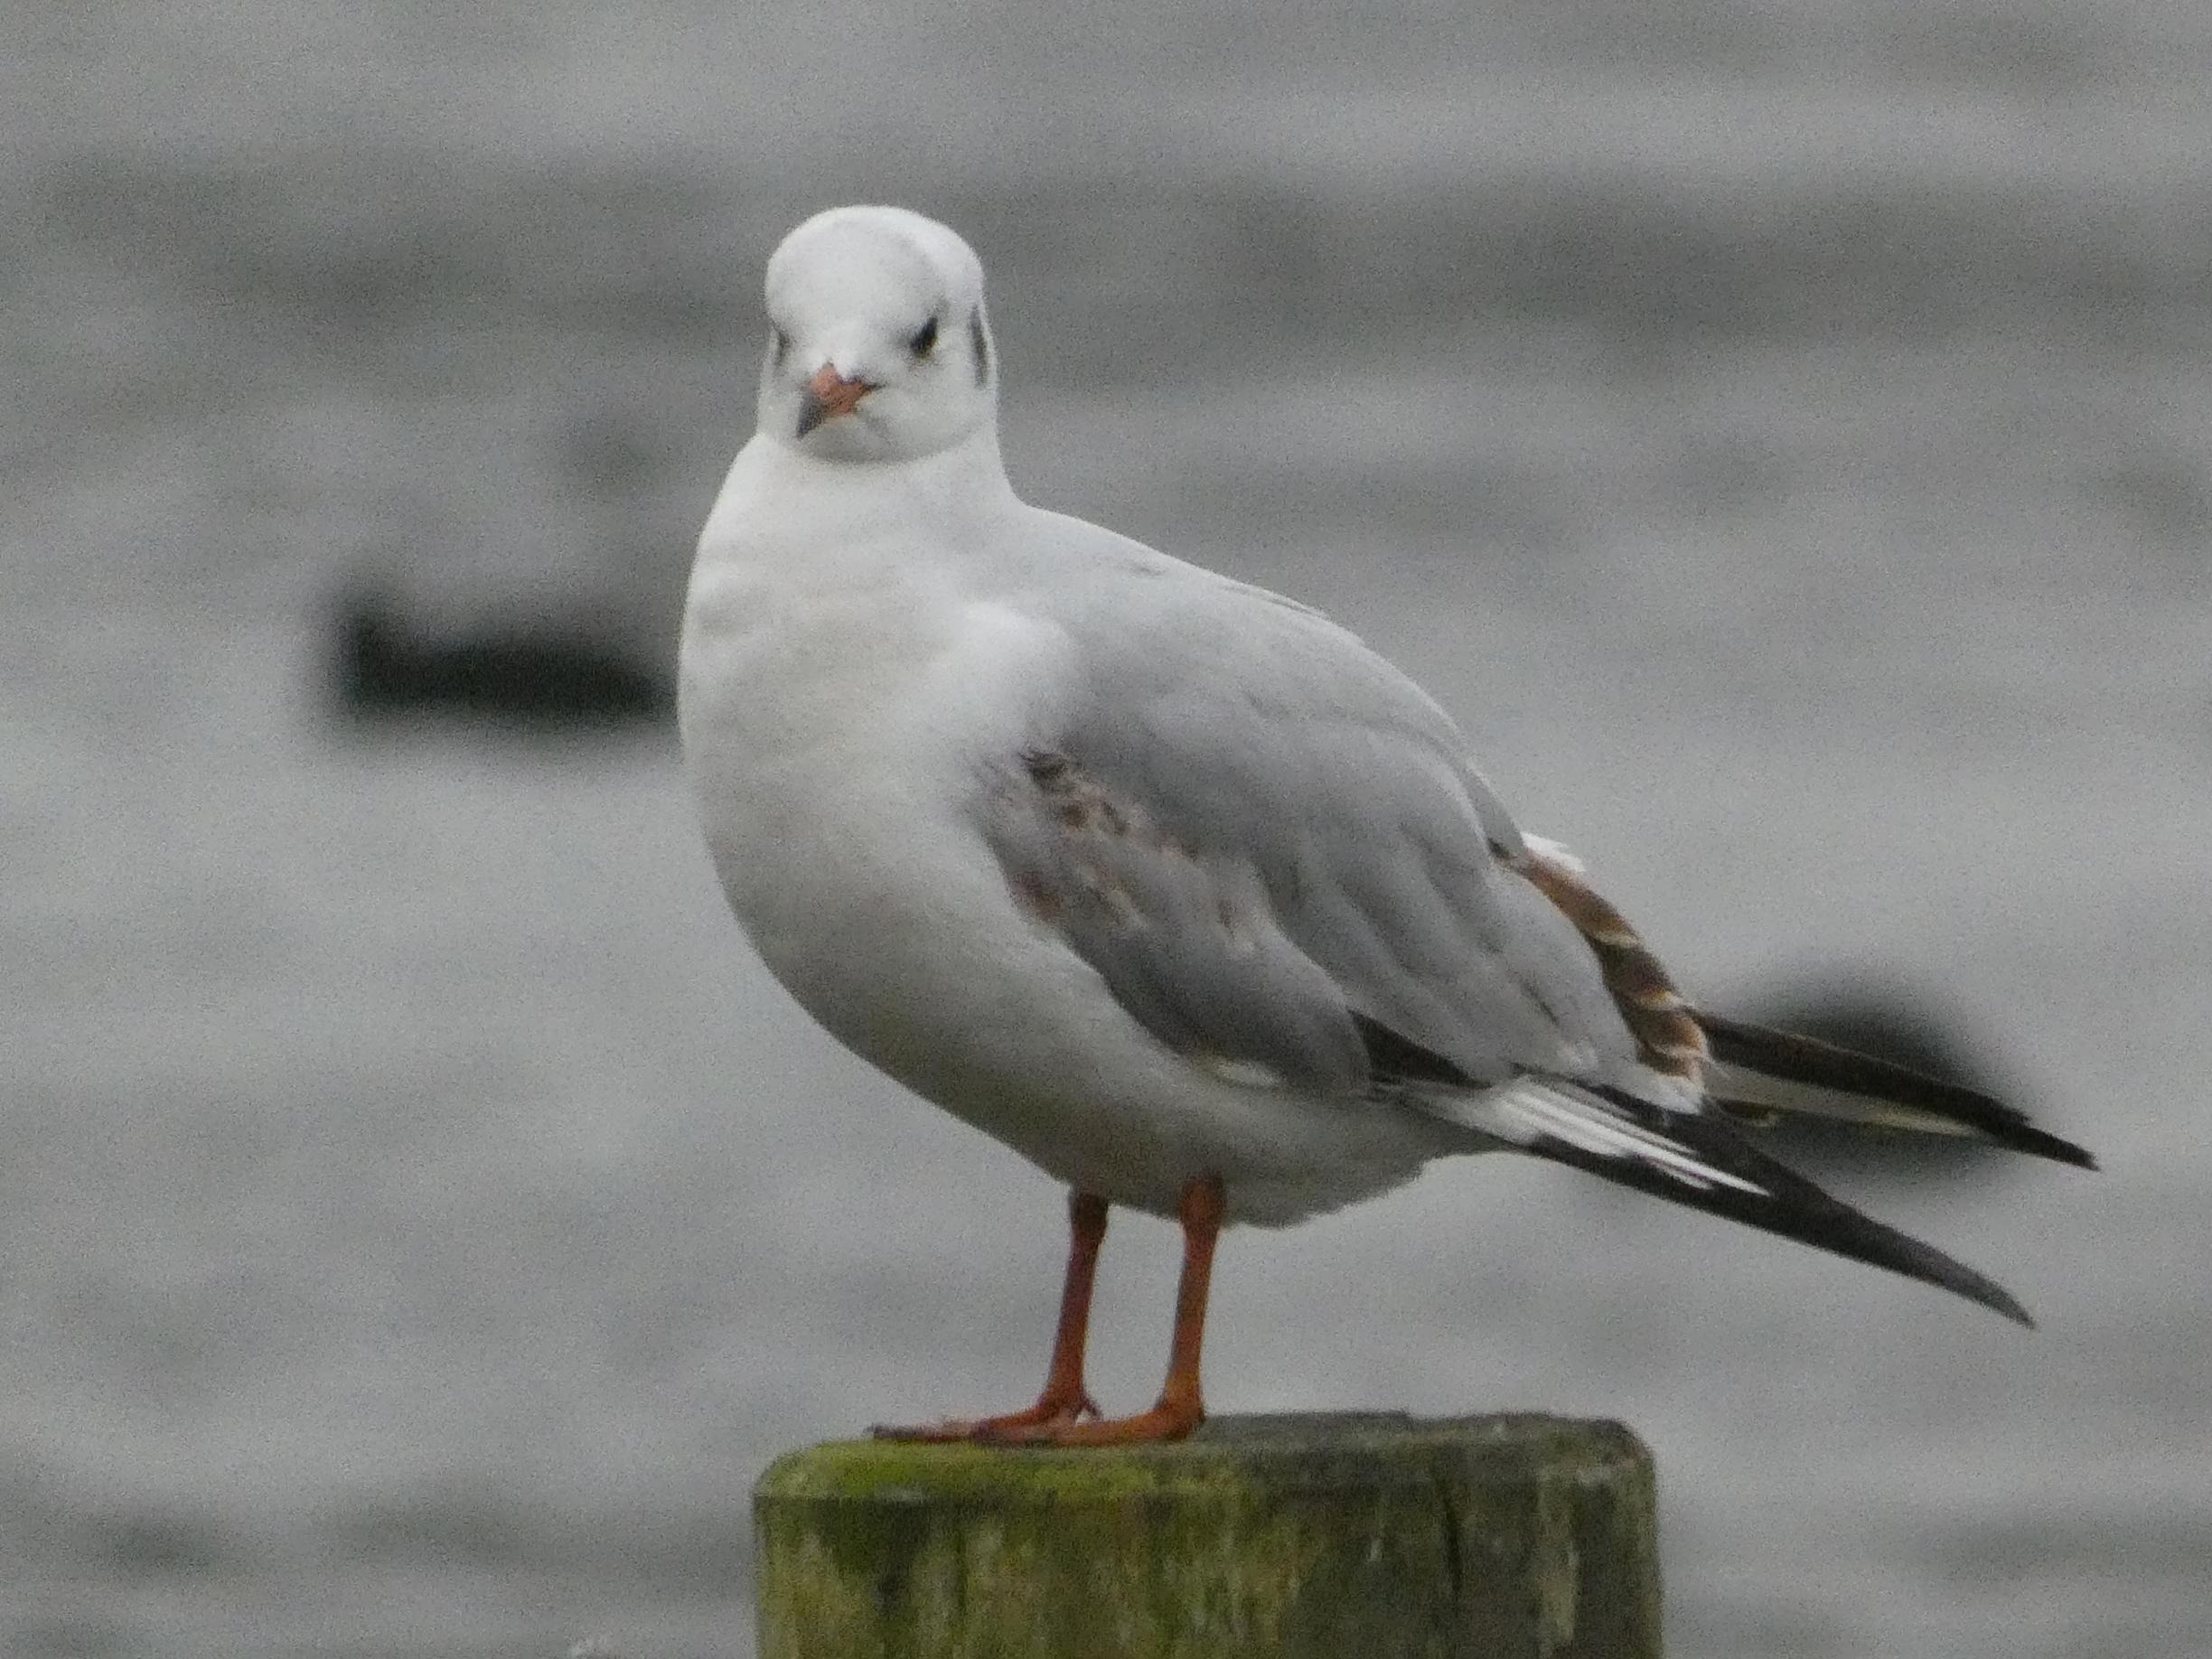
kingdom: Animalia
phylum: Chordata
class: Aves
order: Charadriiformes
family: Laridae
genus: Chroicocephalus
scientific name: Chroicocephalus ridibundus
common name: Hættemåge
